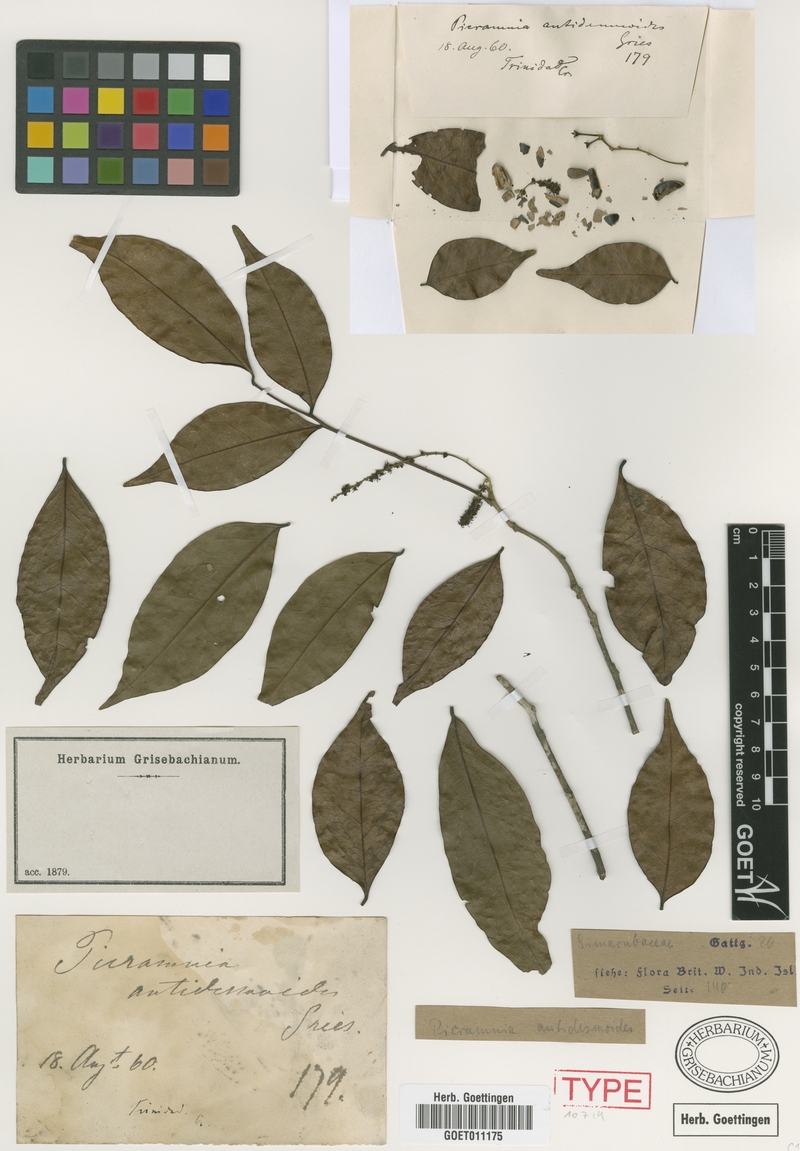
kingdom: Plantae
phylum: Tracheophyta
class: Magnoliopsida
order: Picramniales
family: Picramniaceae
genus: Picramnia
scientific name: Picramnia pentandra
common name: Florida bitterbush
